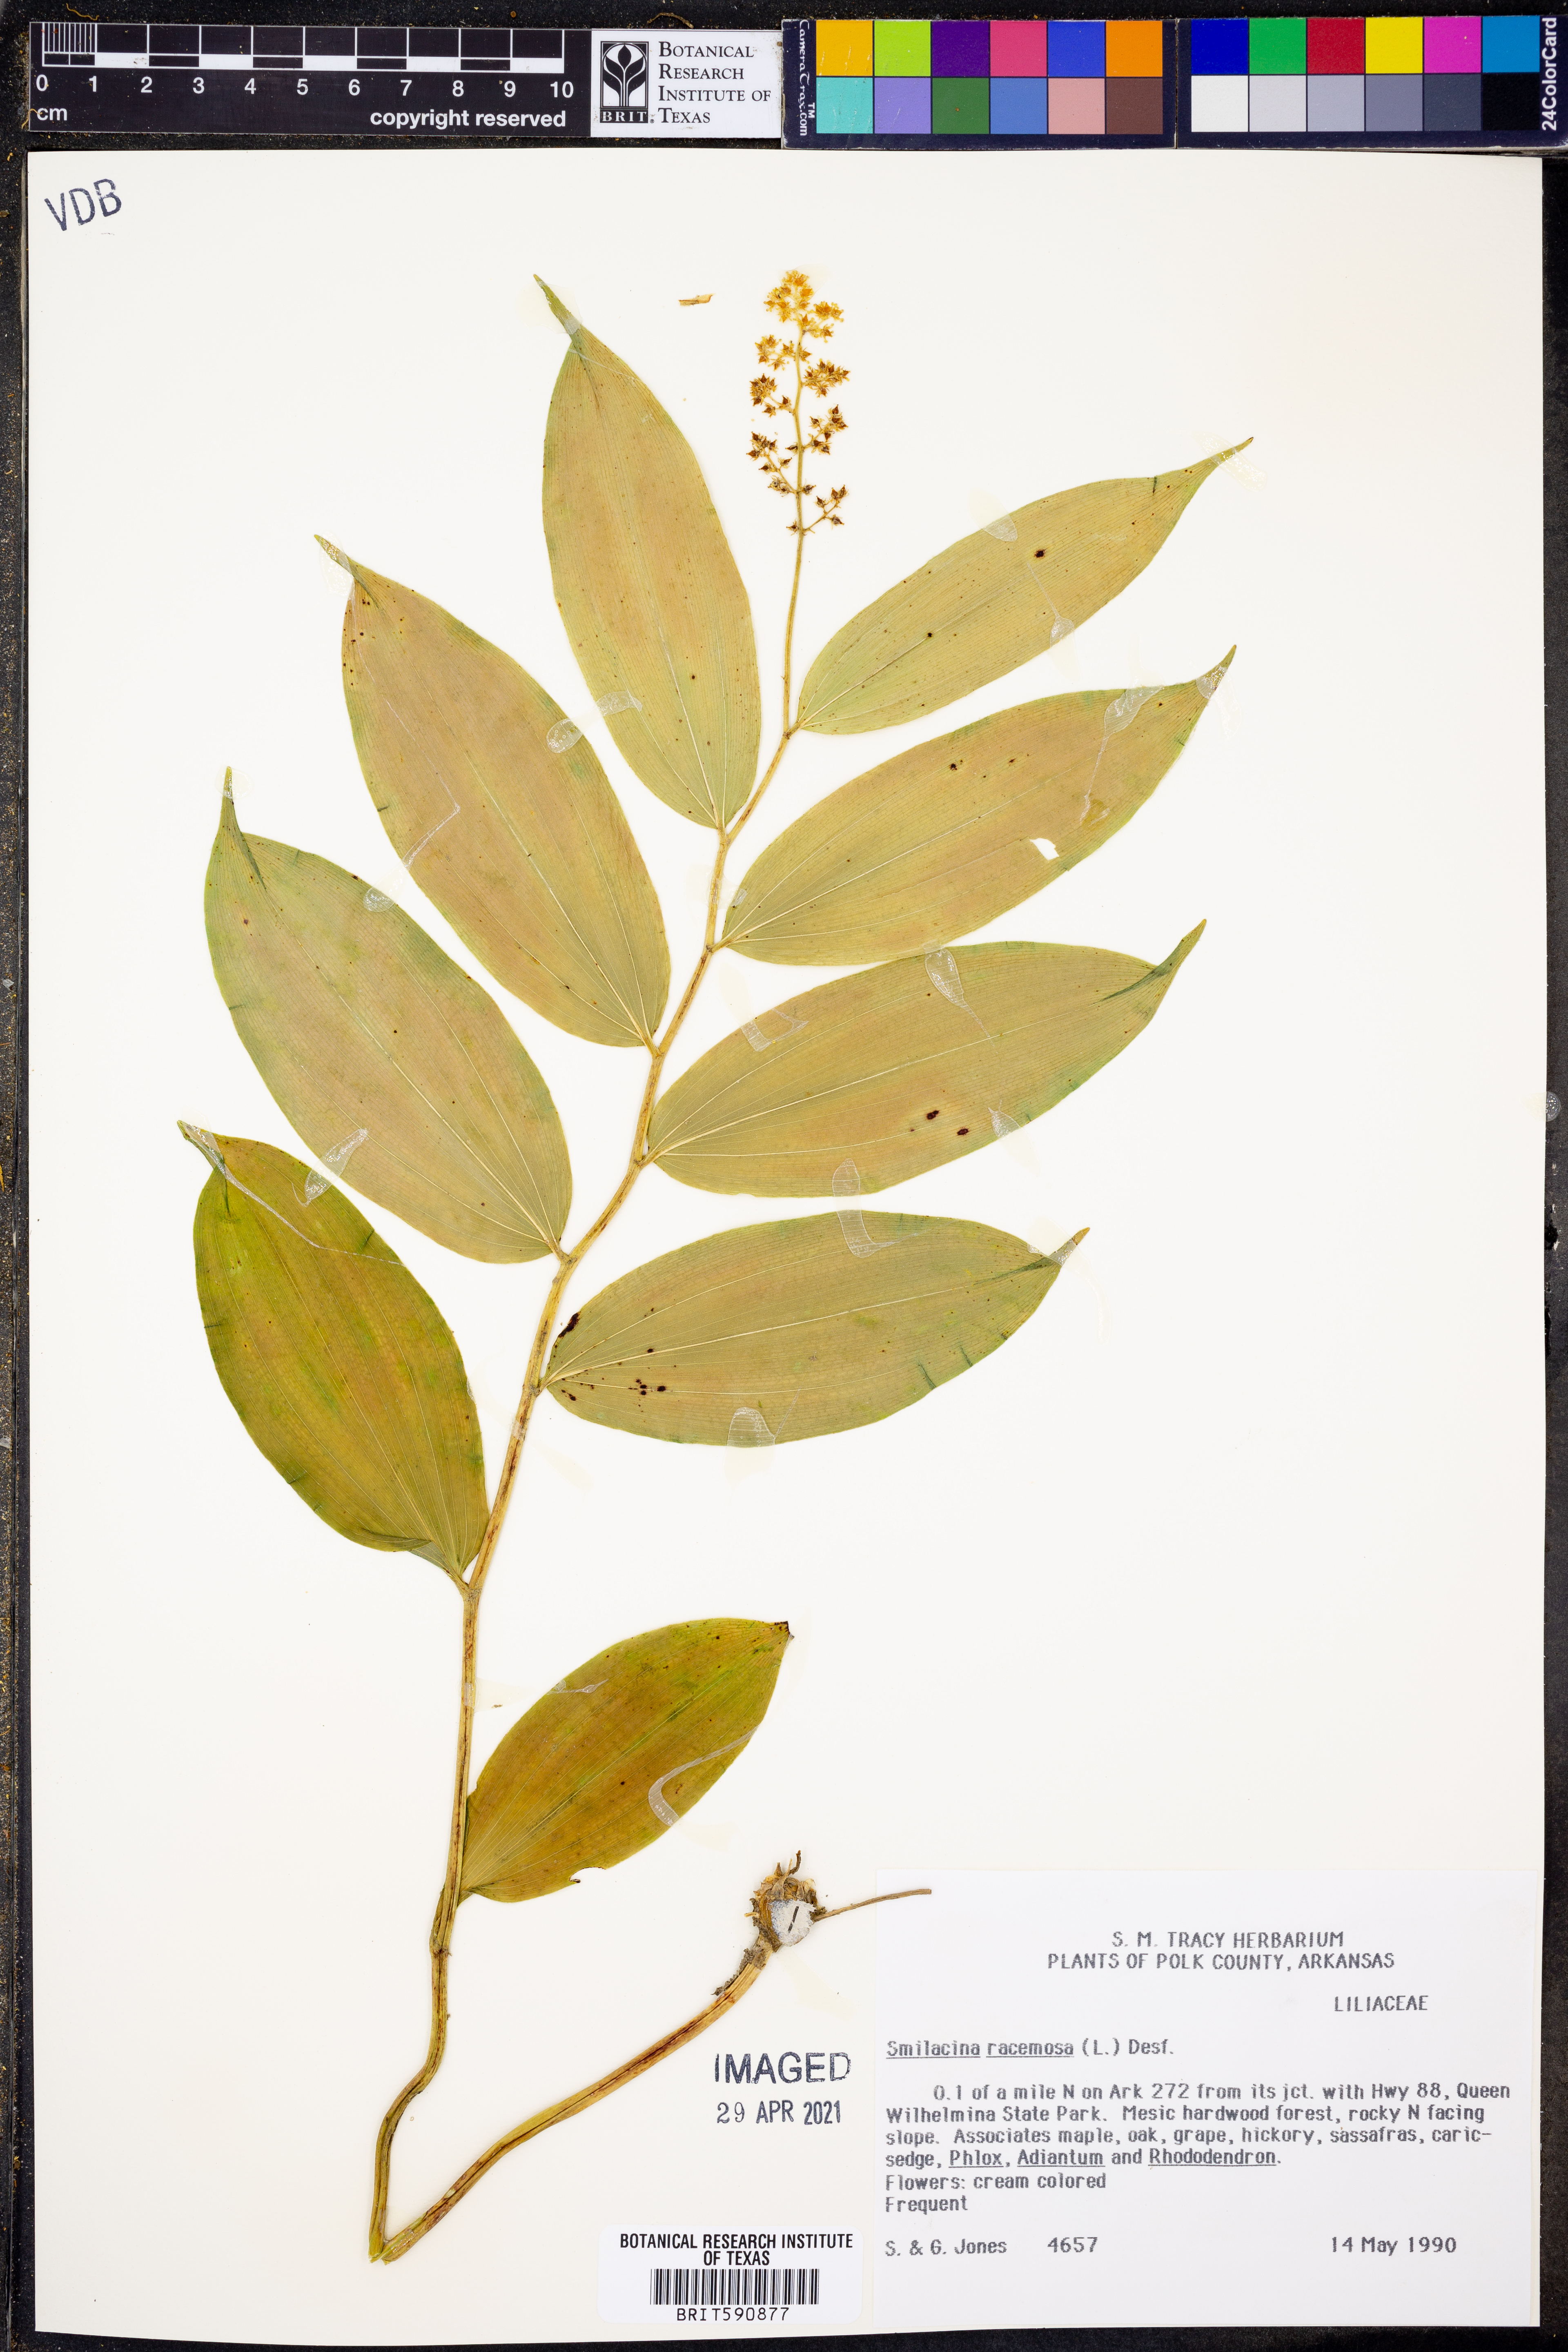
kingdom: Plantae
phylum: Tracheophyta
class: Liliopsida
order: Asparagales
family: Asparagaceae
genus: Maianthemum
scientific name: Maianthemum racemosum
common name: False spikenard
